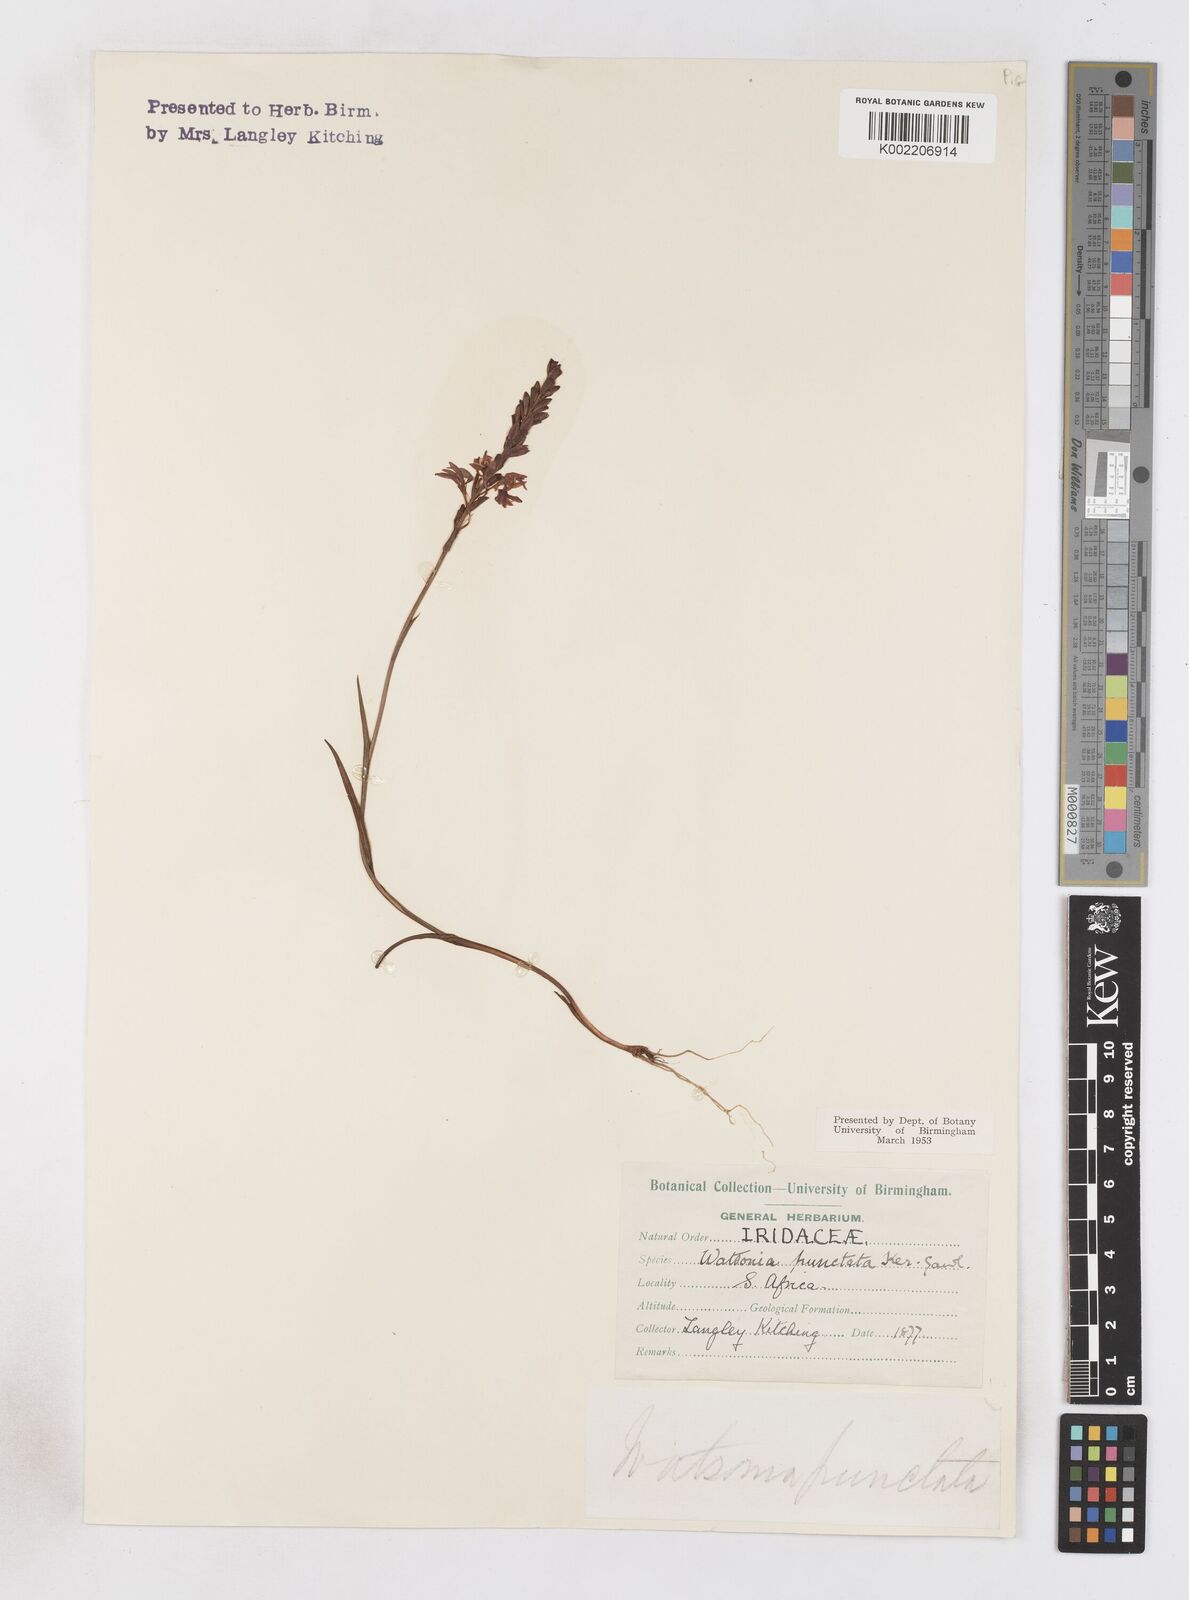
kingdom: Plantae
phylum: Tracheophyta
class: Liliopsida
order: Asparagales
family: Iridaceae
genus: Micranthus
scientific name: Micranthus
